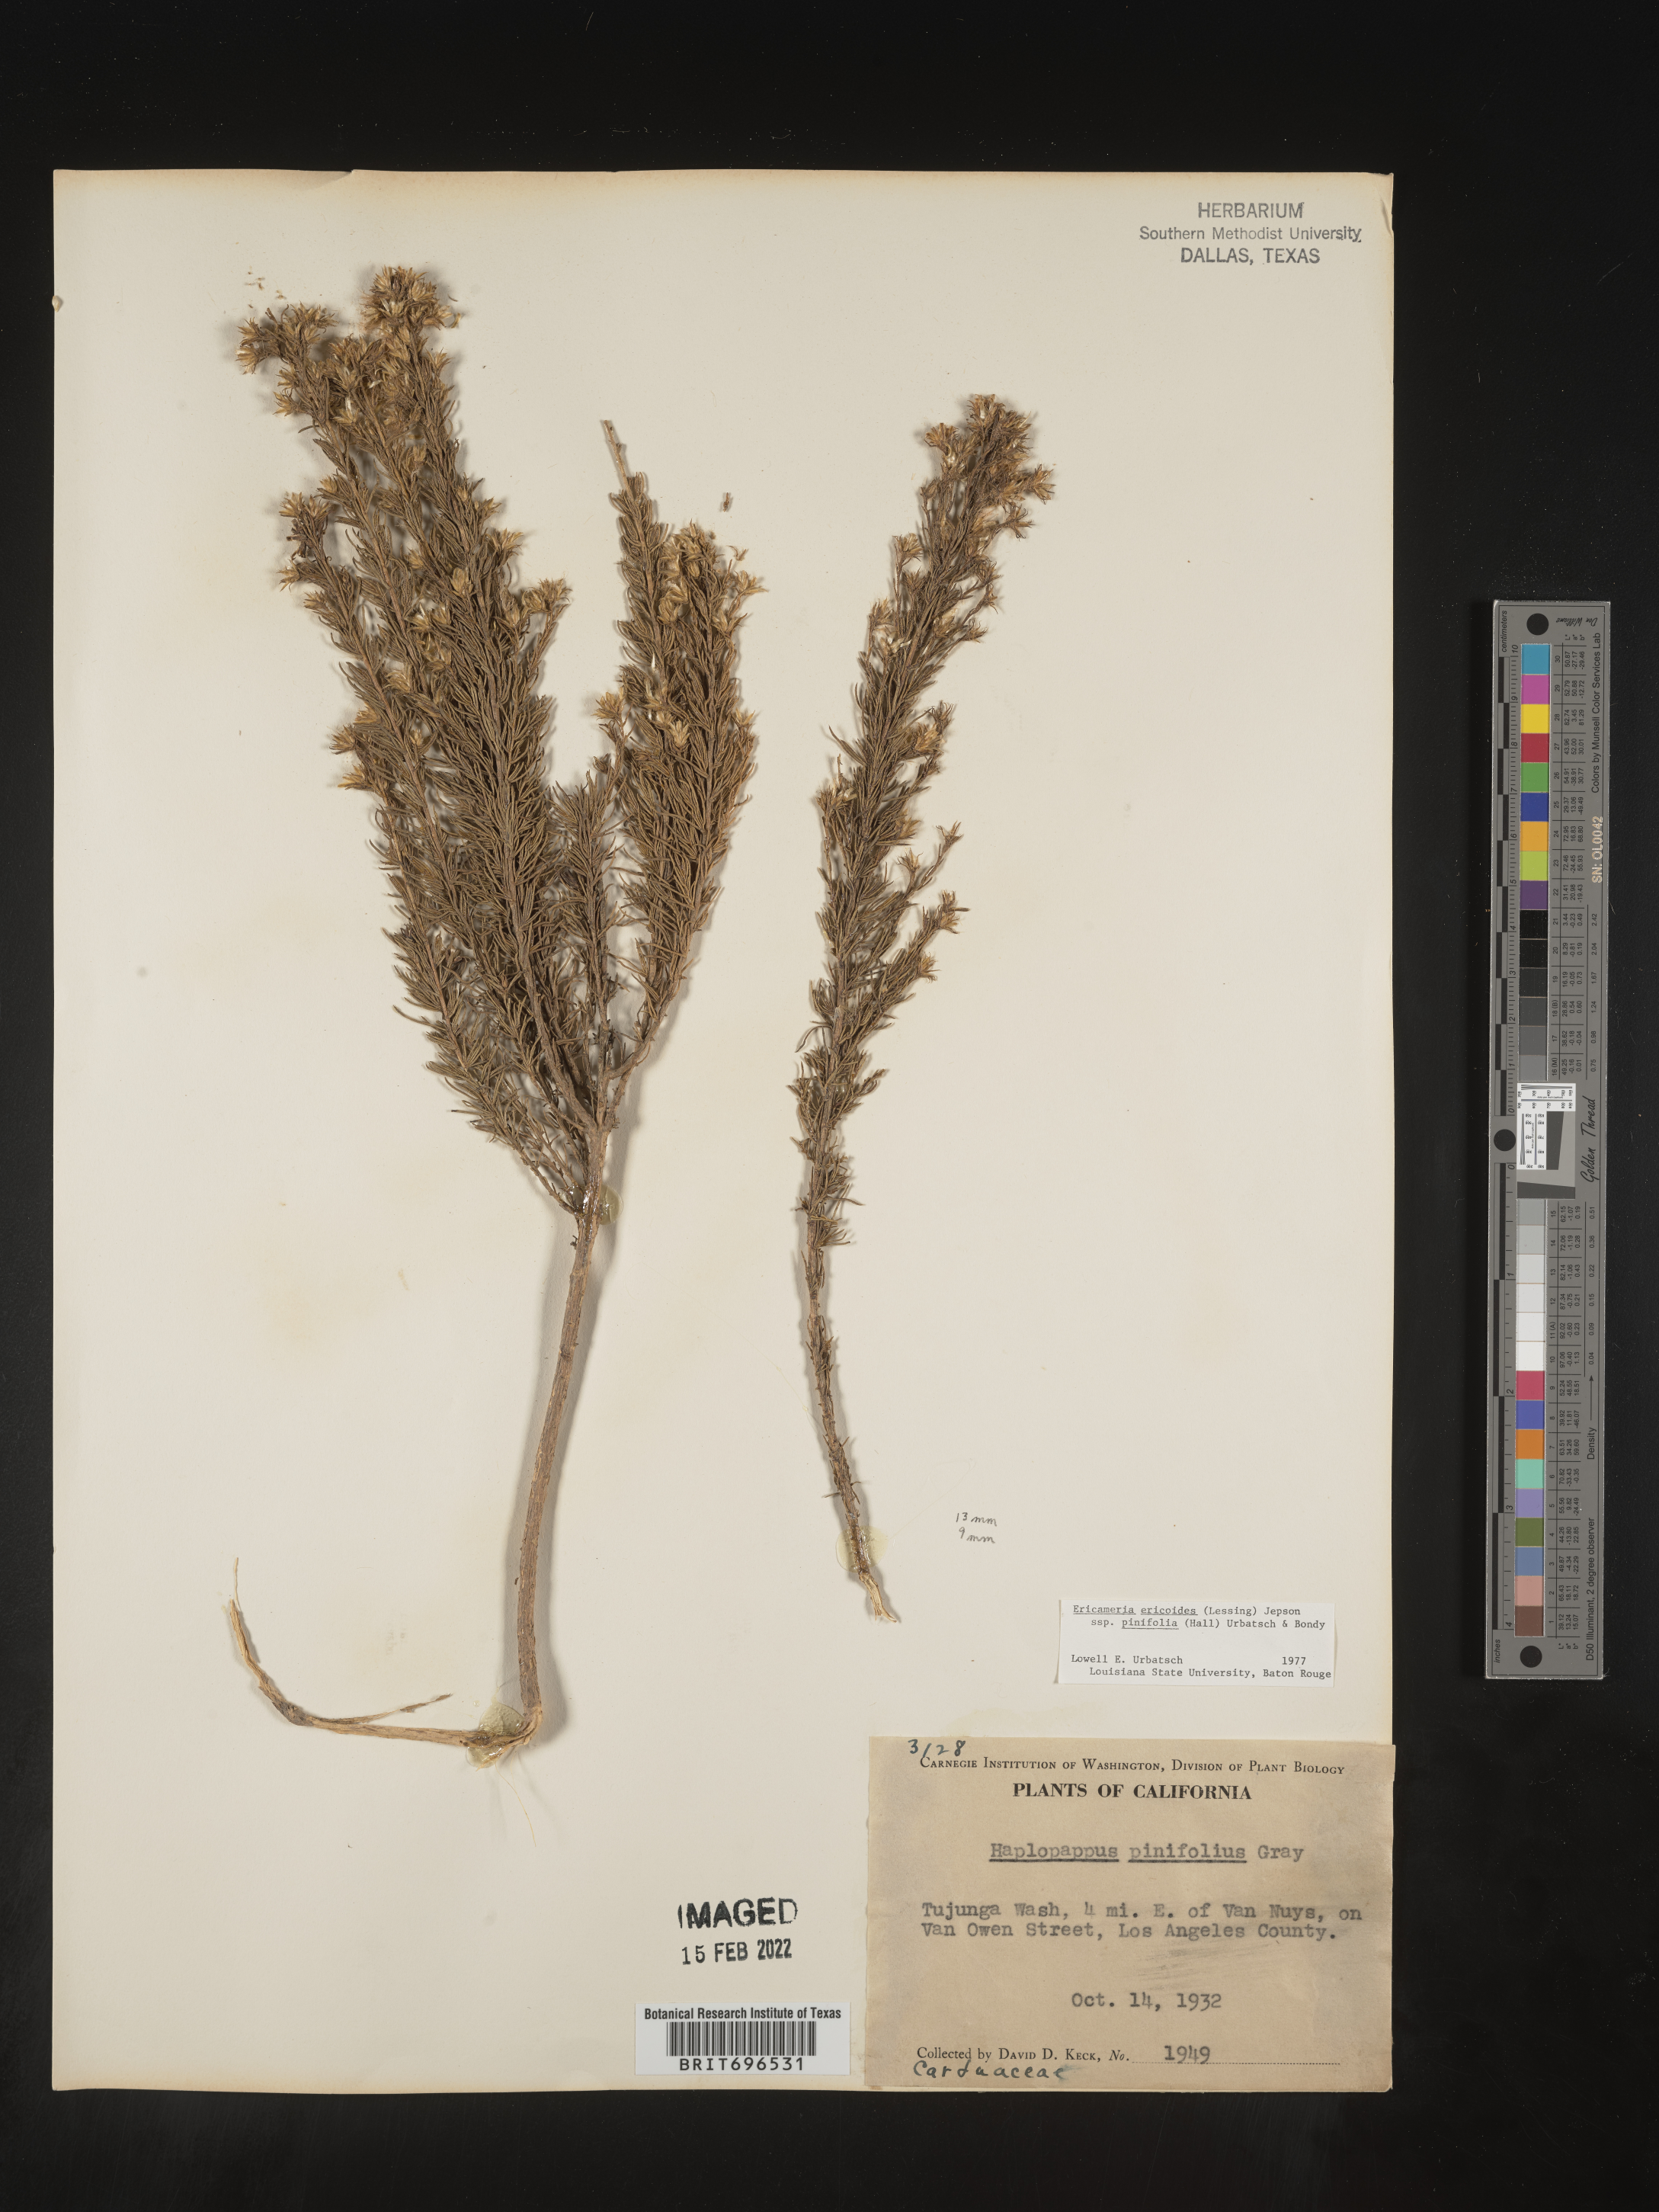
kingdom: Plantae
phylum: Tracheophyta
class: Magnoliopsida
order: Asterales
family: Asteraceae
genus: Ericameria
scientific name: Ericameria pinifolia
